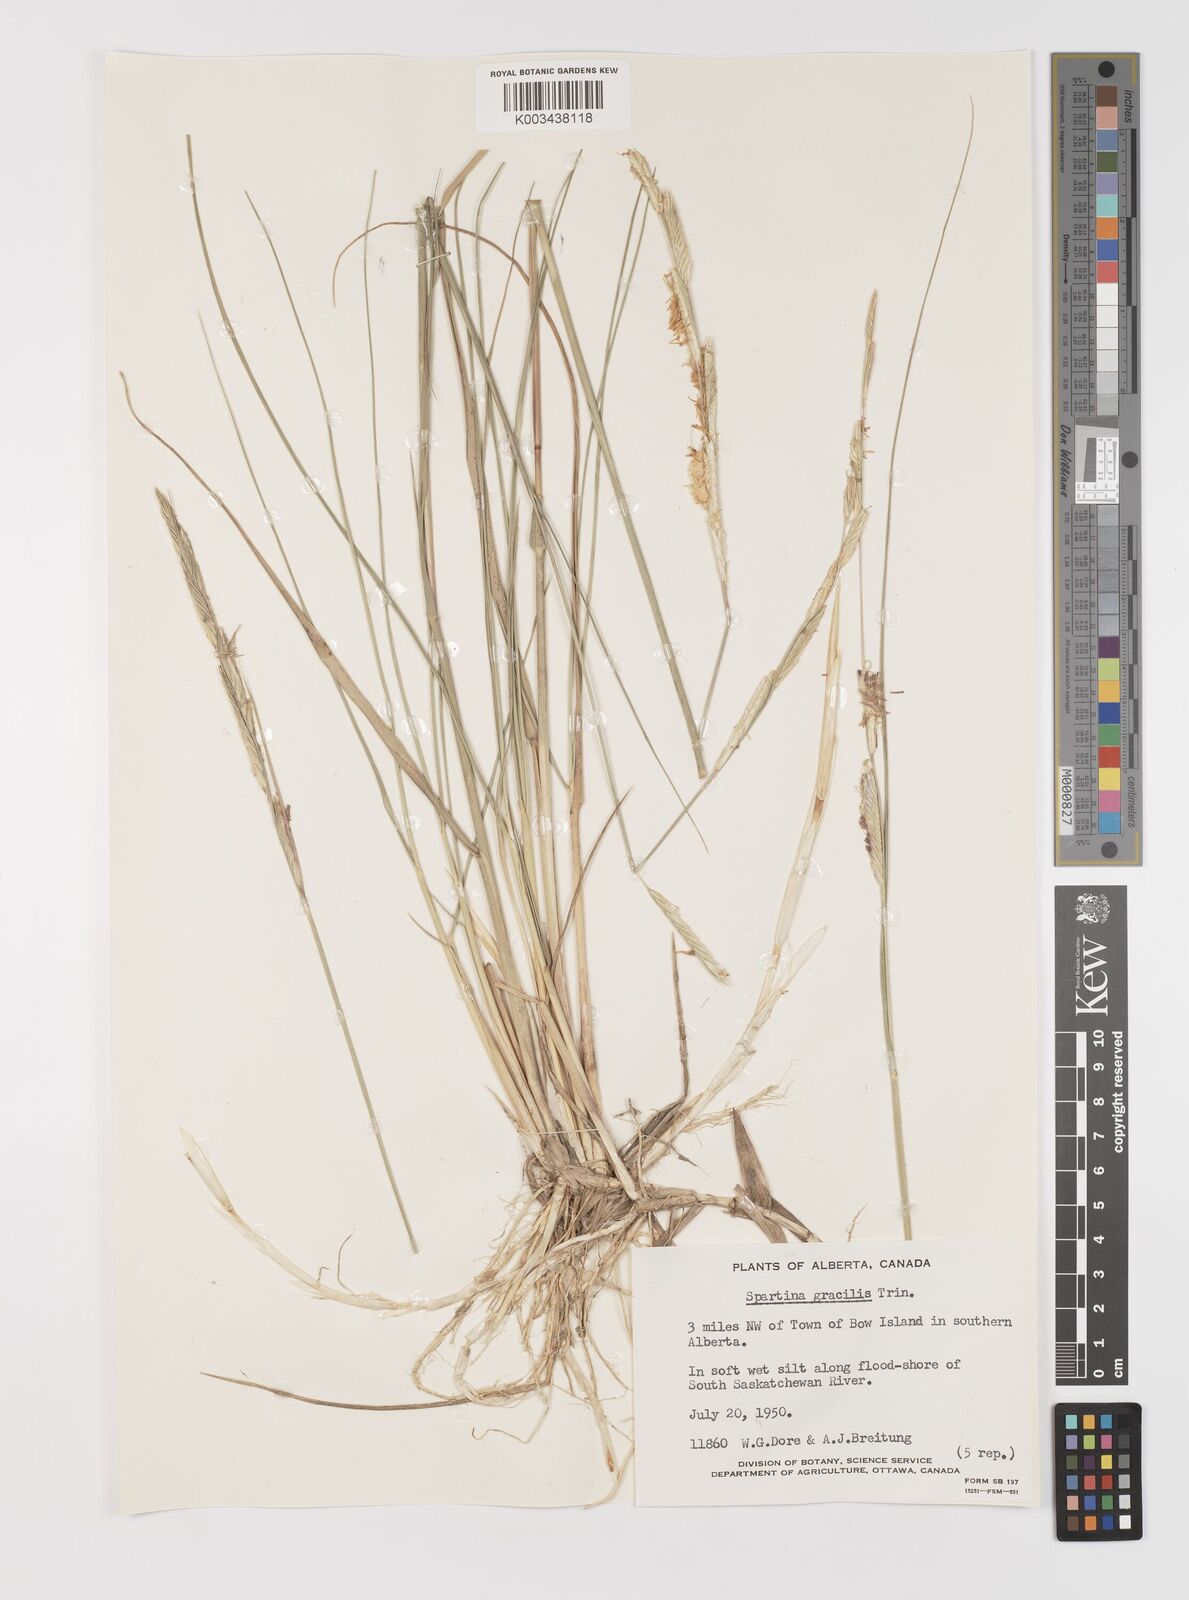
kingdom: Plantae
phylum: Tracheophyta
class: Liliopsida
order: Poales
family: Poaceae
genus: Sporobolus
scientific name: Sporobolus hookerianus
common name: Alkali cordgrass
